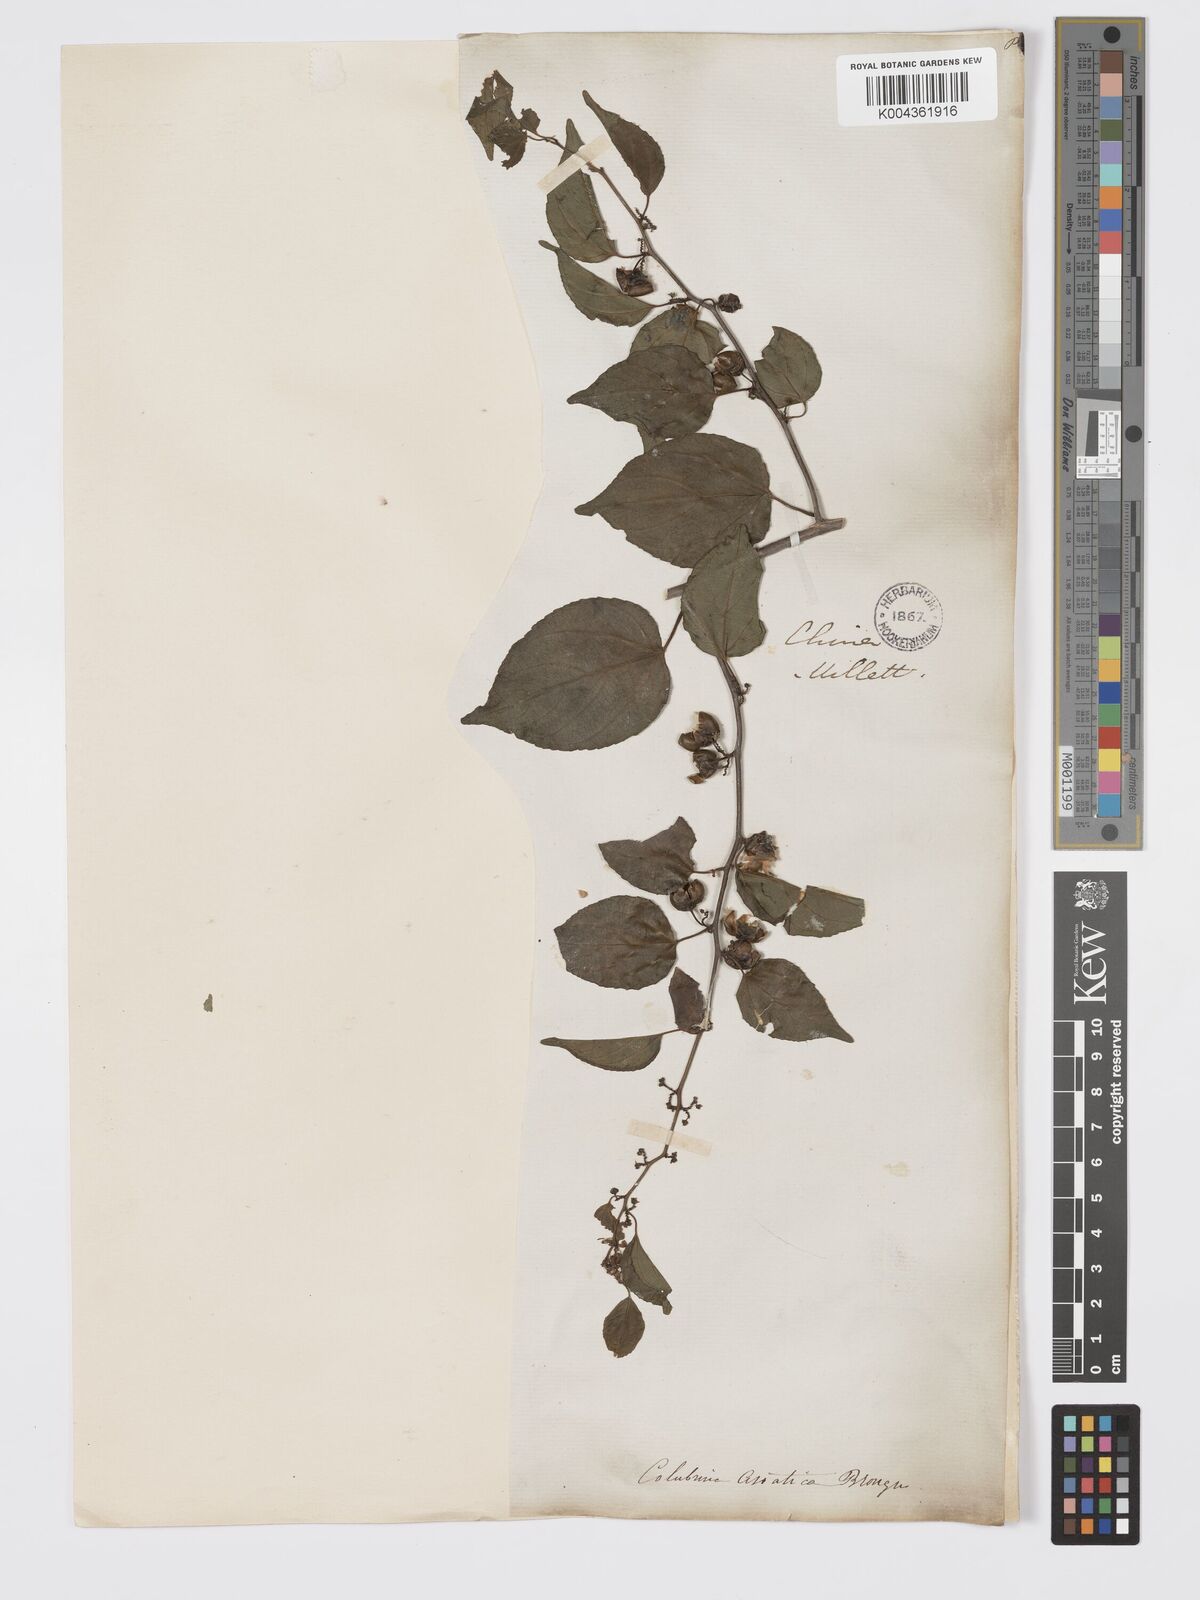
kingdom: Plantae
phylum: Tracheophyta
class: Magnoliopsida
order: Rosales
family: Rhamnaceae
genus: Colubrina
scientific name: Colubrina asiatica
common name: Asian nakedwood
